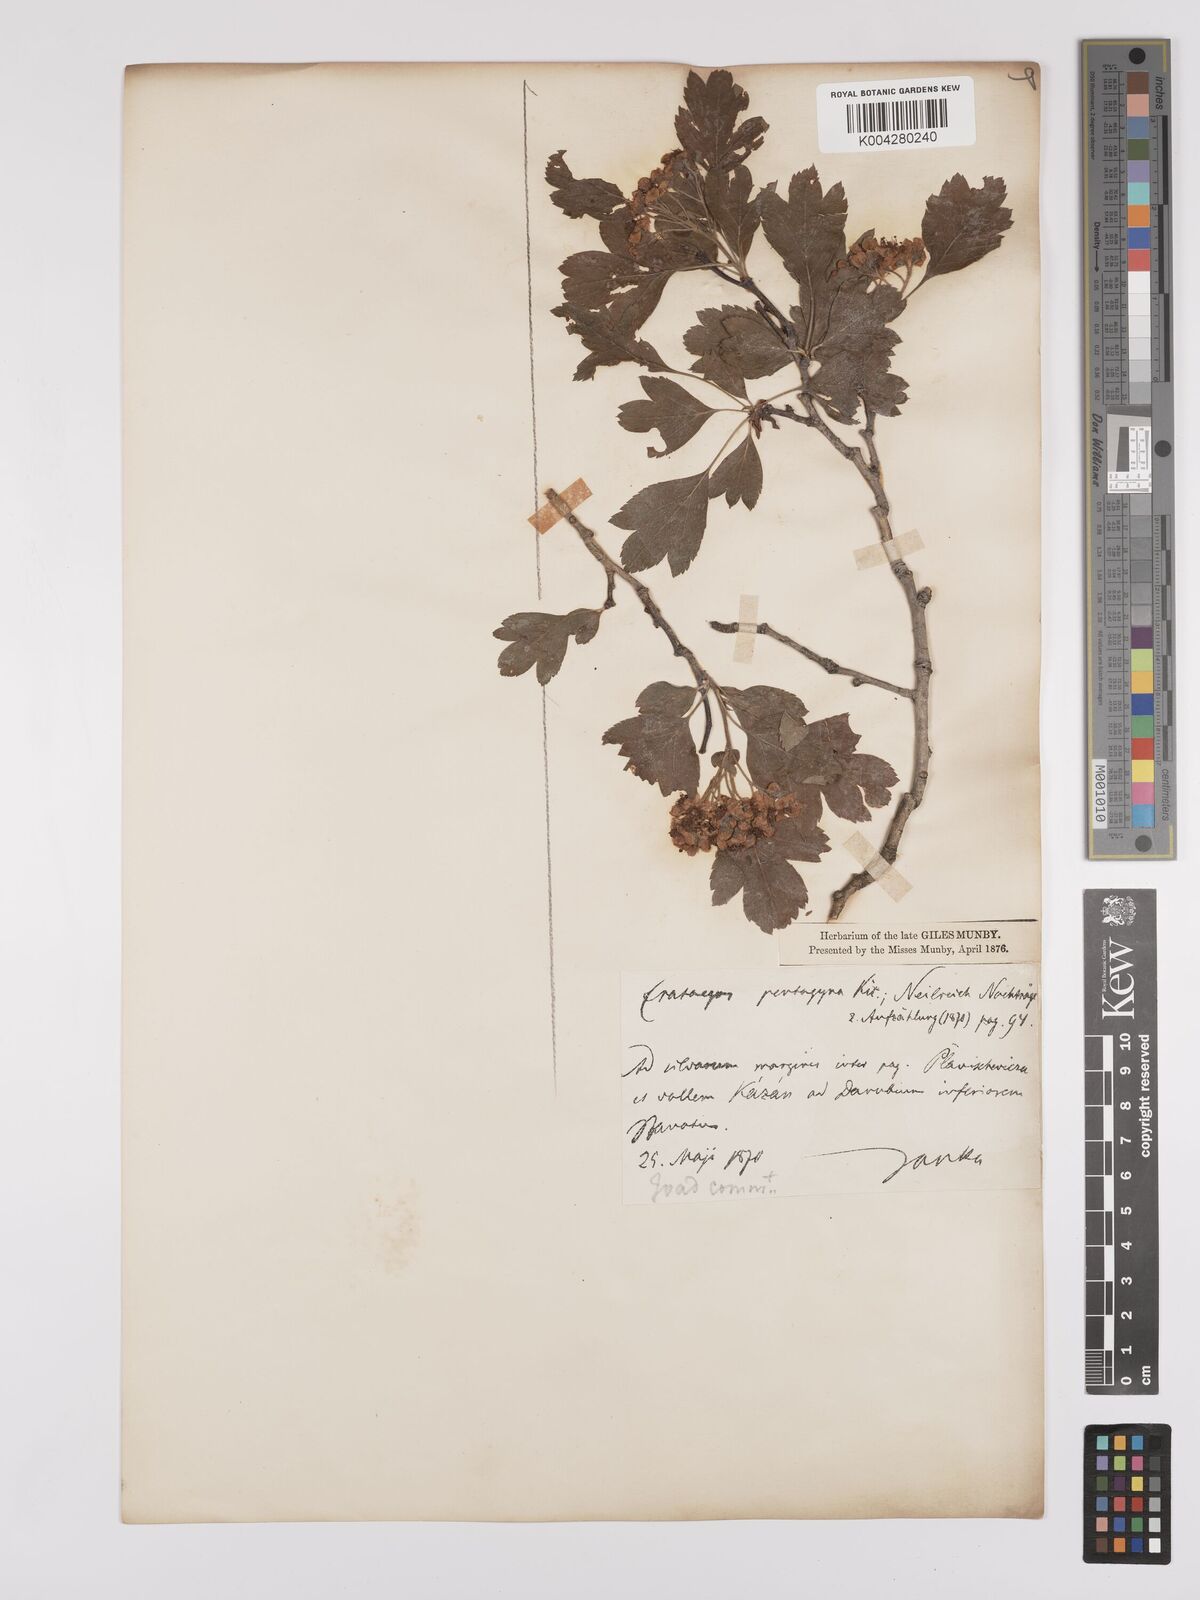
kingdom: Plantae
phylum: Tracheophyta
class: Magnoliopsida
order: Rosales
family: Rosaceae
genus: Crataegus
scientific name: Crataegus pentagyna
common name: Small-flowered black hawthorn
